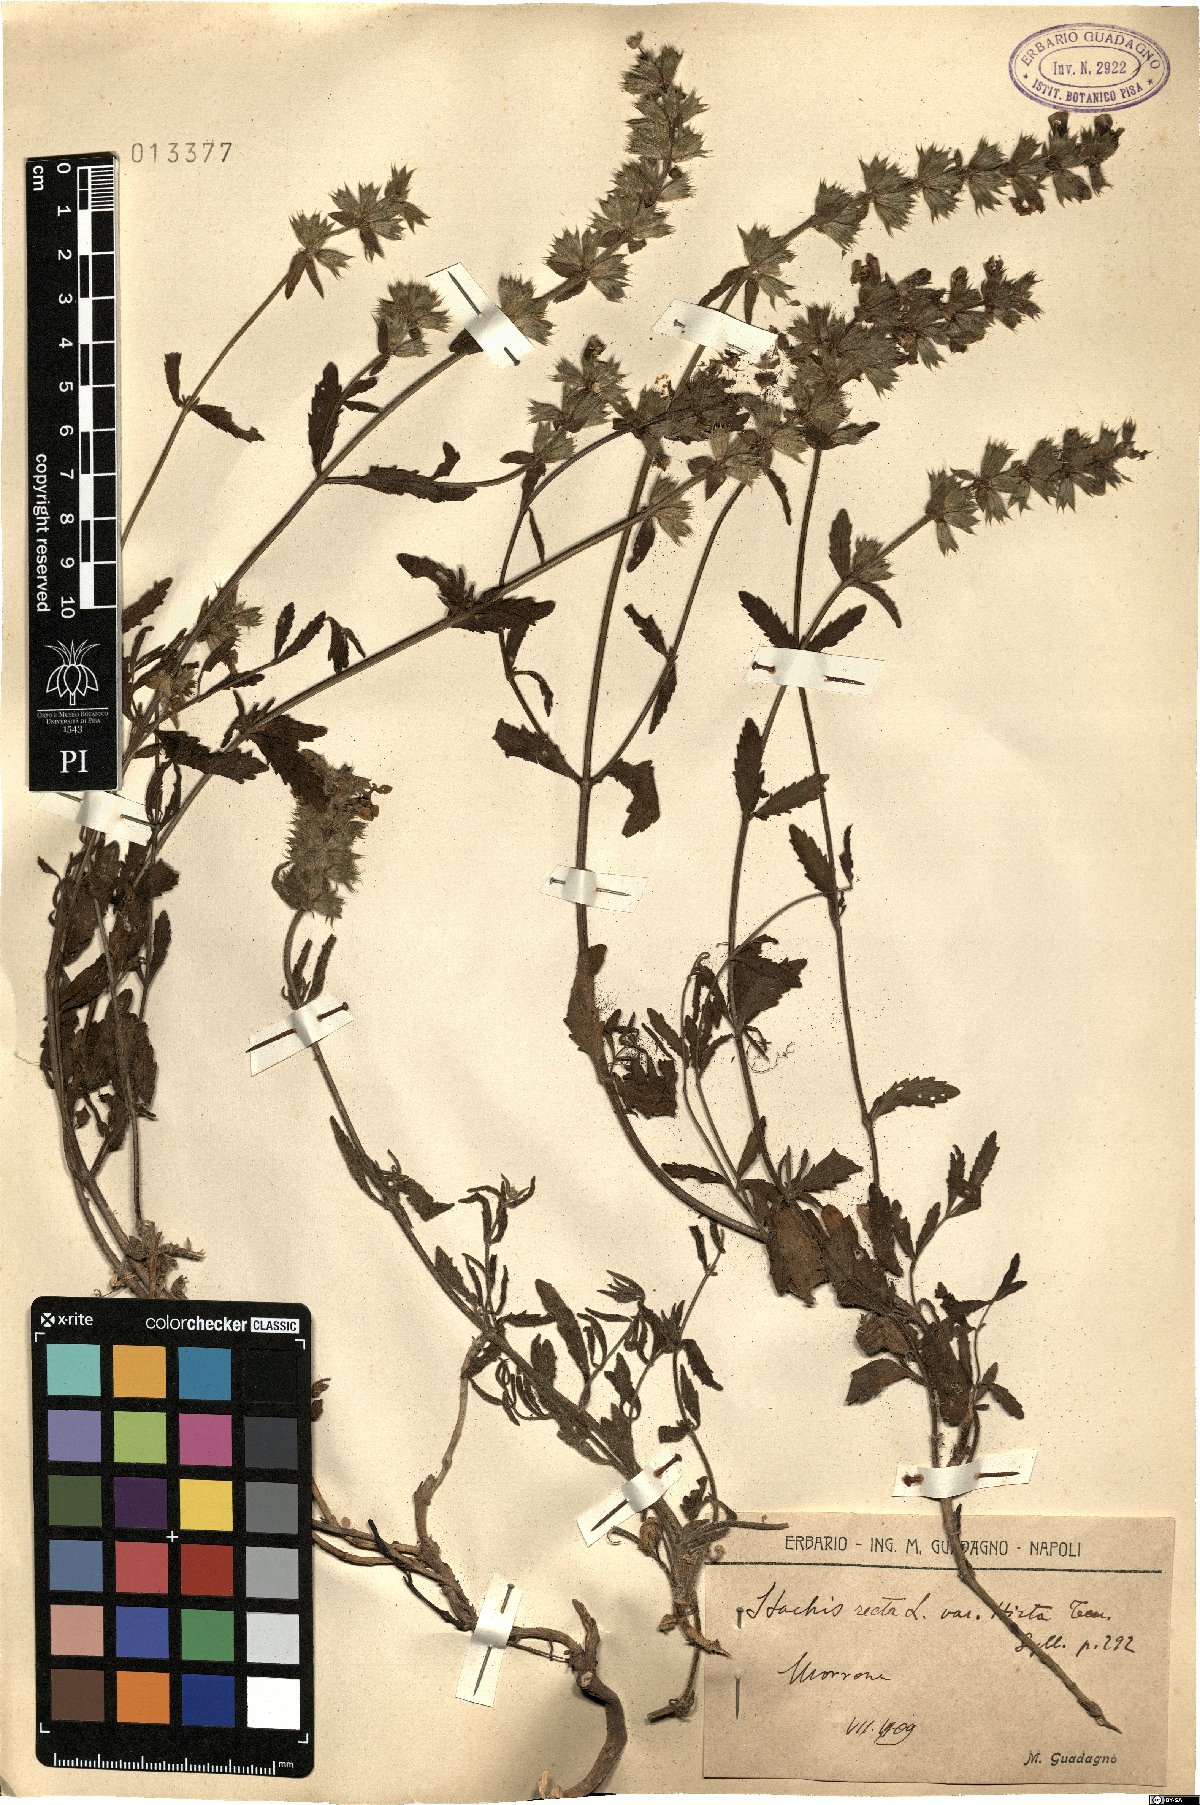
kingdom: Plantae
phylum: Tracheophyta
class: Magnoliopsida
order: Lamiales
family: Lamiaceae
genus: Stachys
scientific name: Stachys recta
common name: Perennial yellow-woundwort
